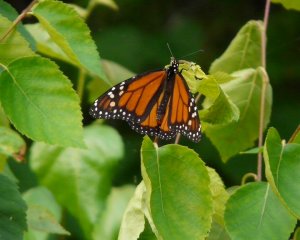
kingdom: Animalia
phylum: Arthropoda
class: Insecta
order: Lepidoptera
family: Nymphalidae
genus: Danaus
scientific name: Danaus plexippus
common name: Monarch
